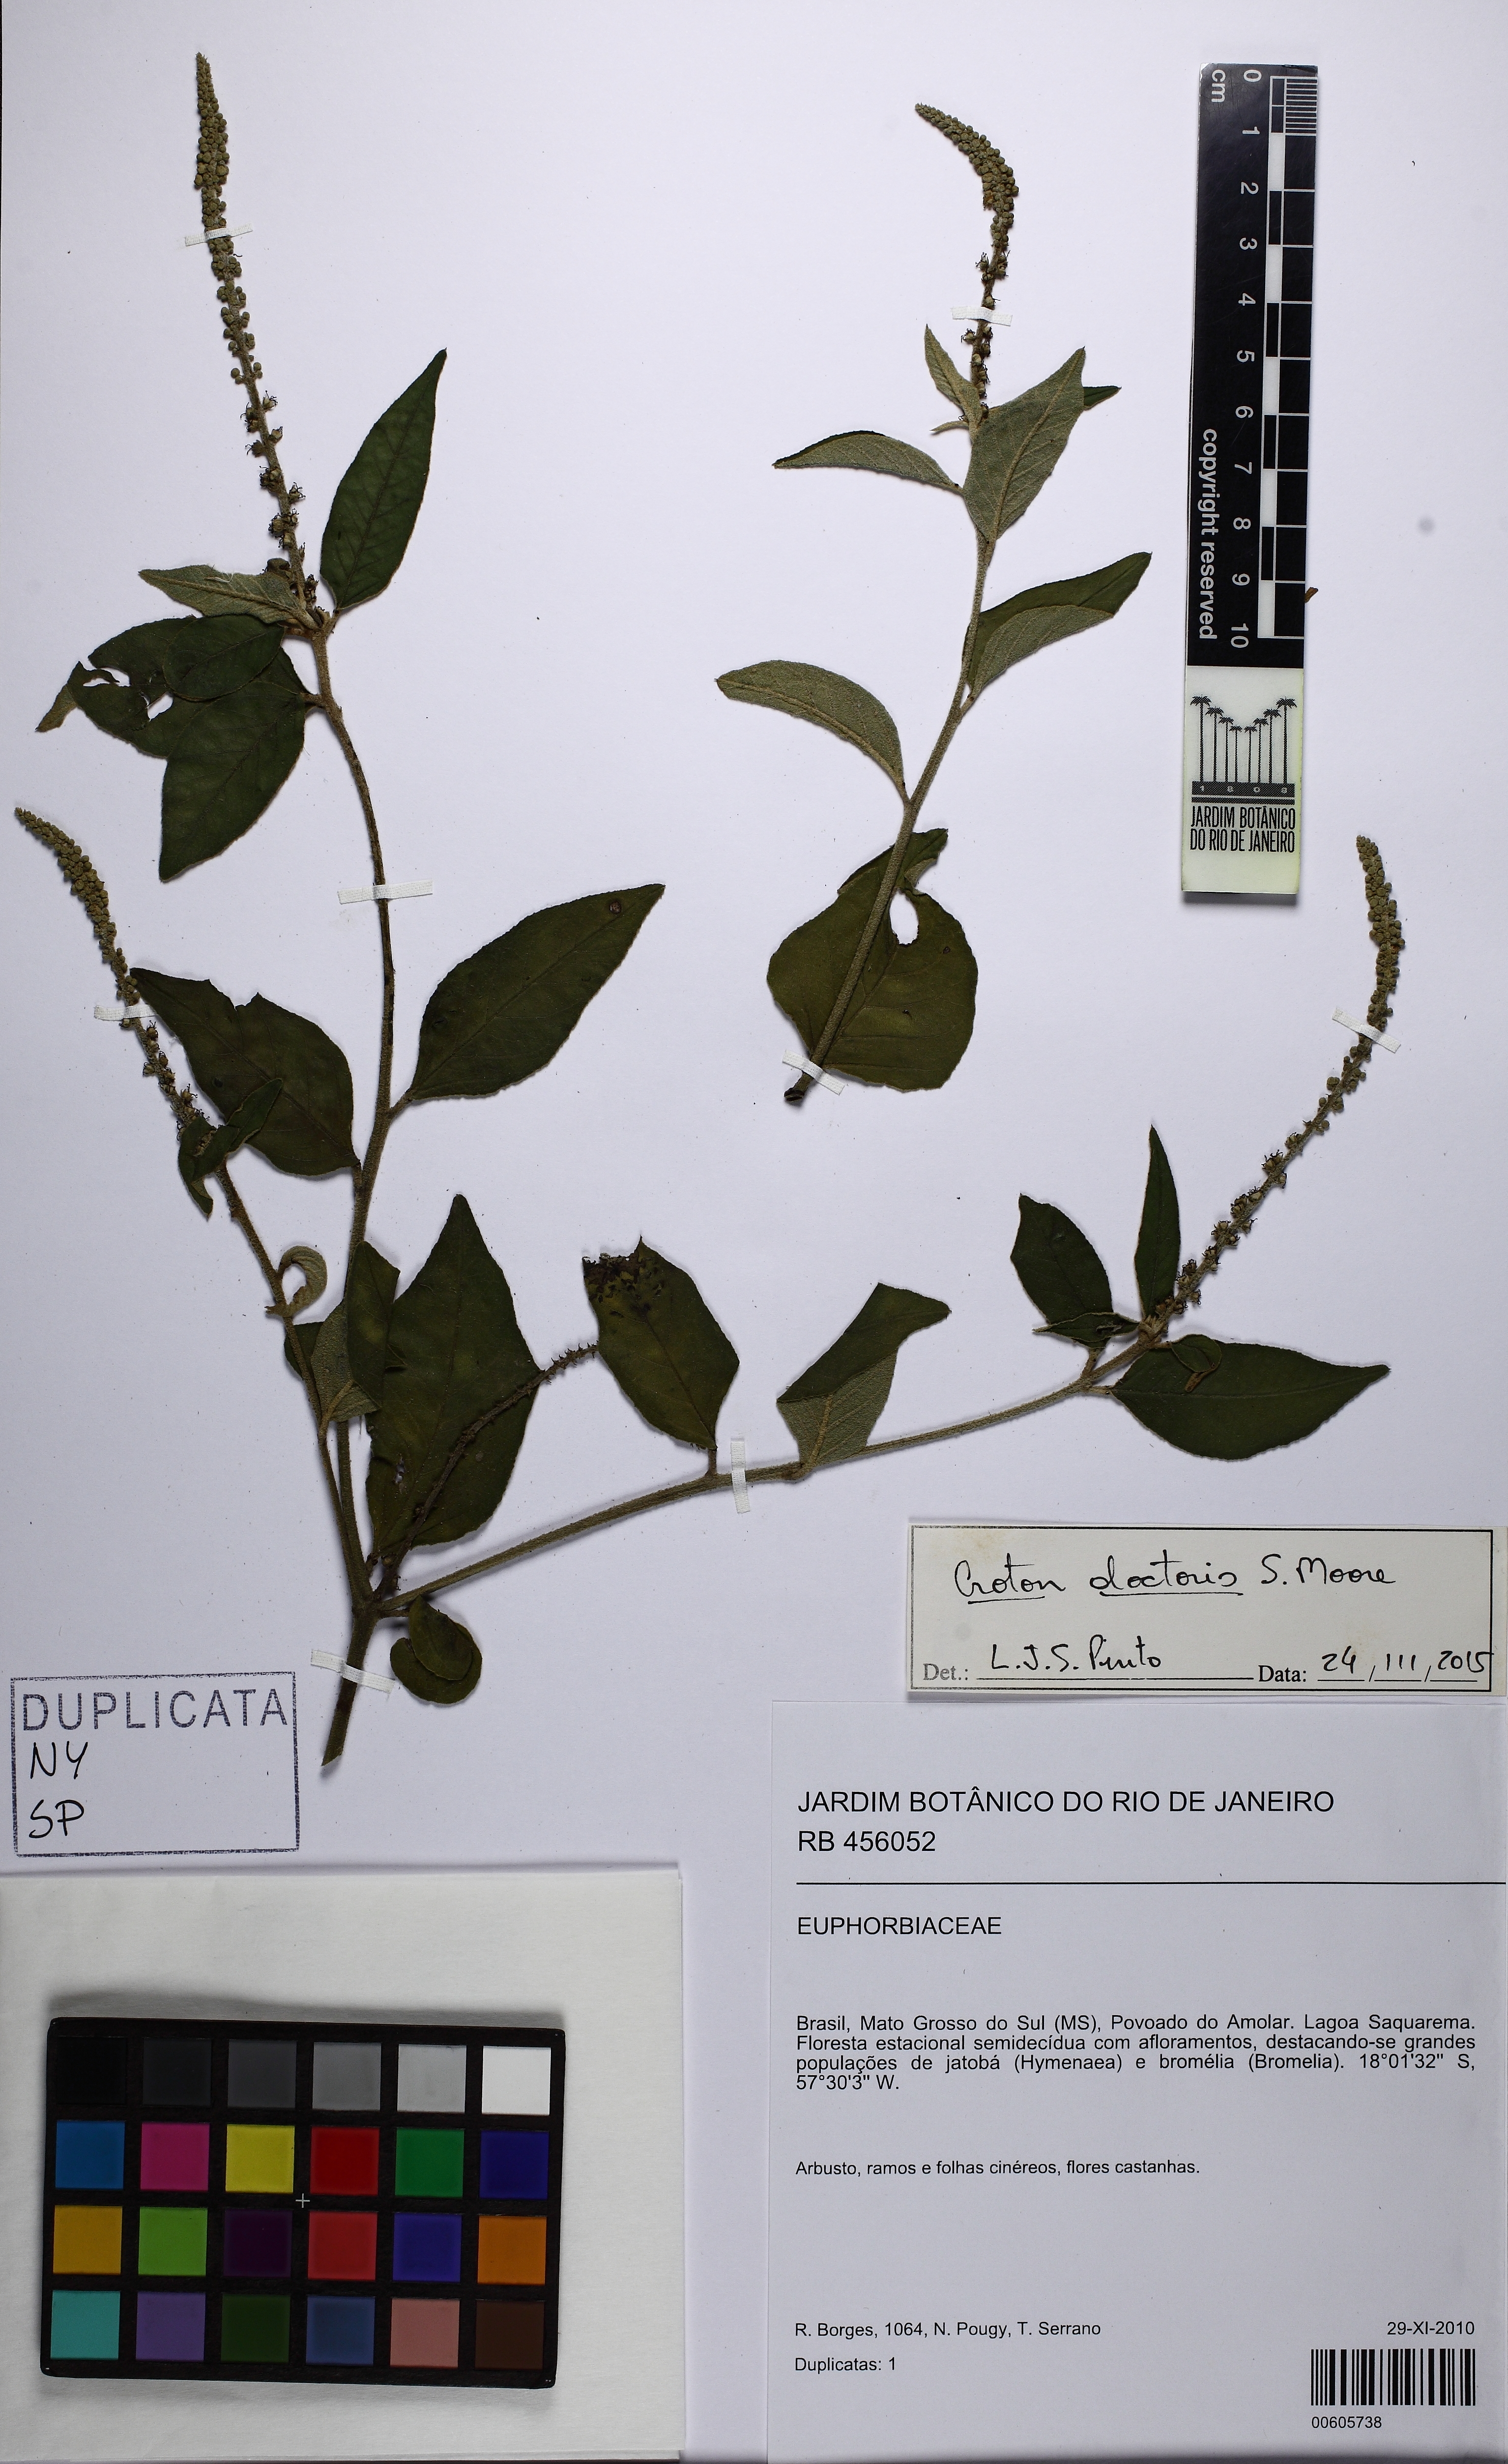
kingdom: Plantae
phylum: Tracheophyta
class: Magnoliopsida
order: Malpighiales
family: Euphorbiaceae
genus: Croton
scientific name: Croton doctoris
